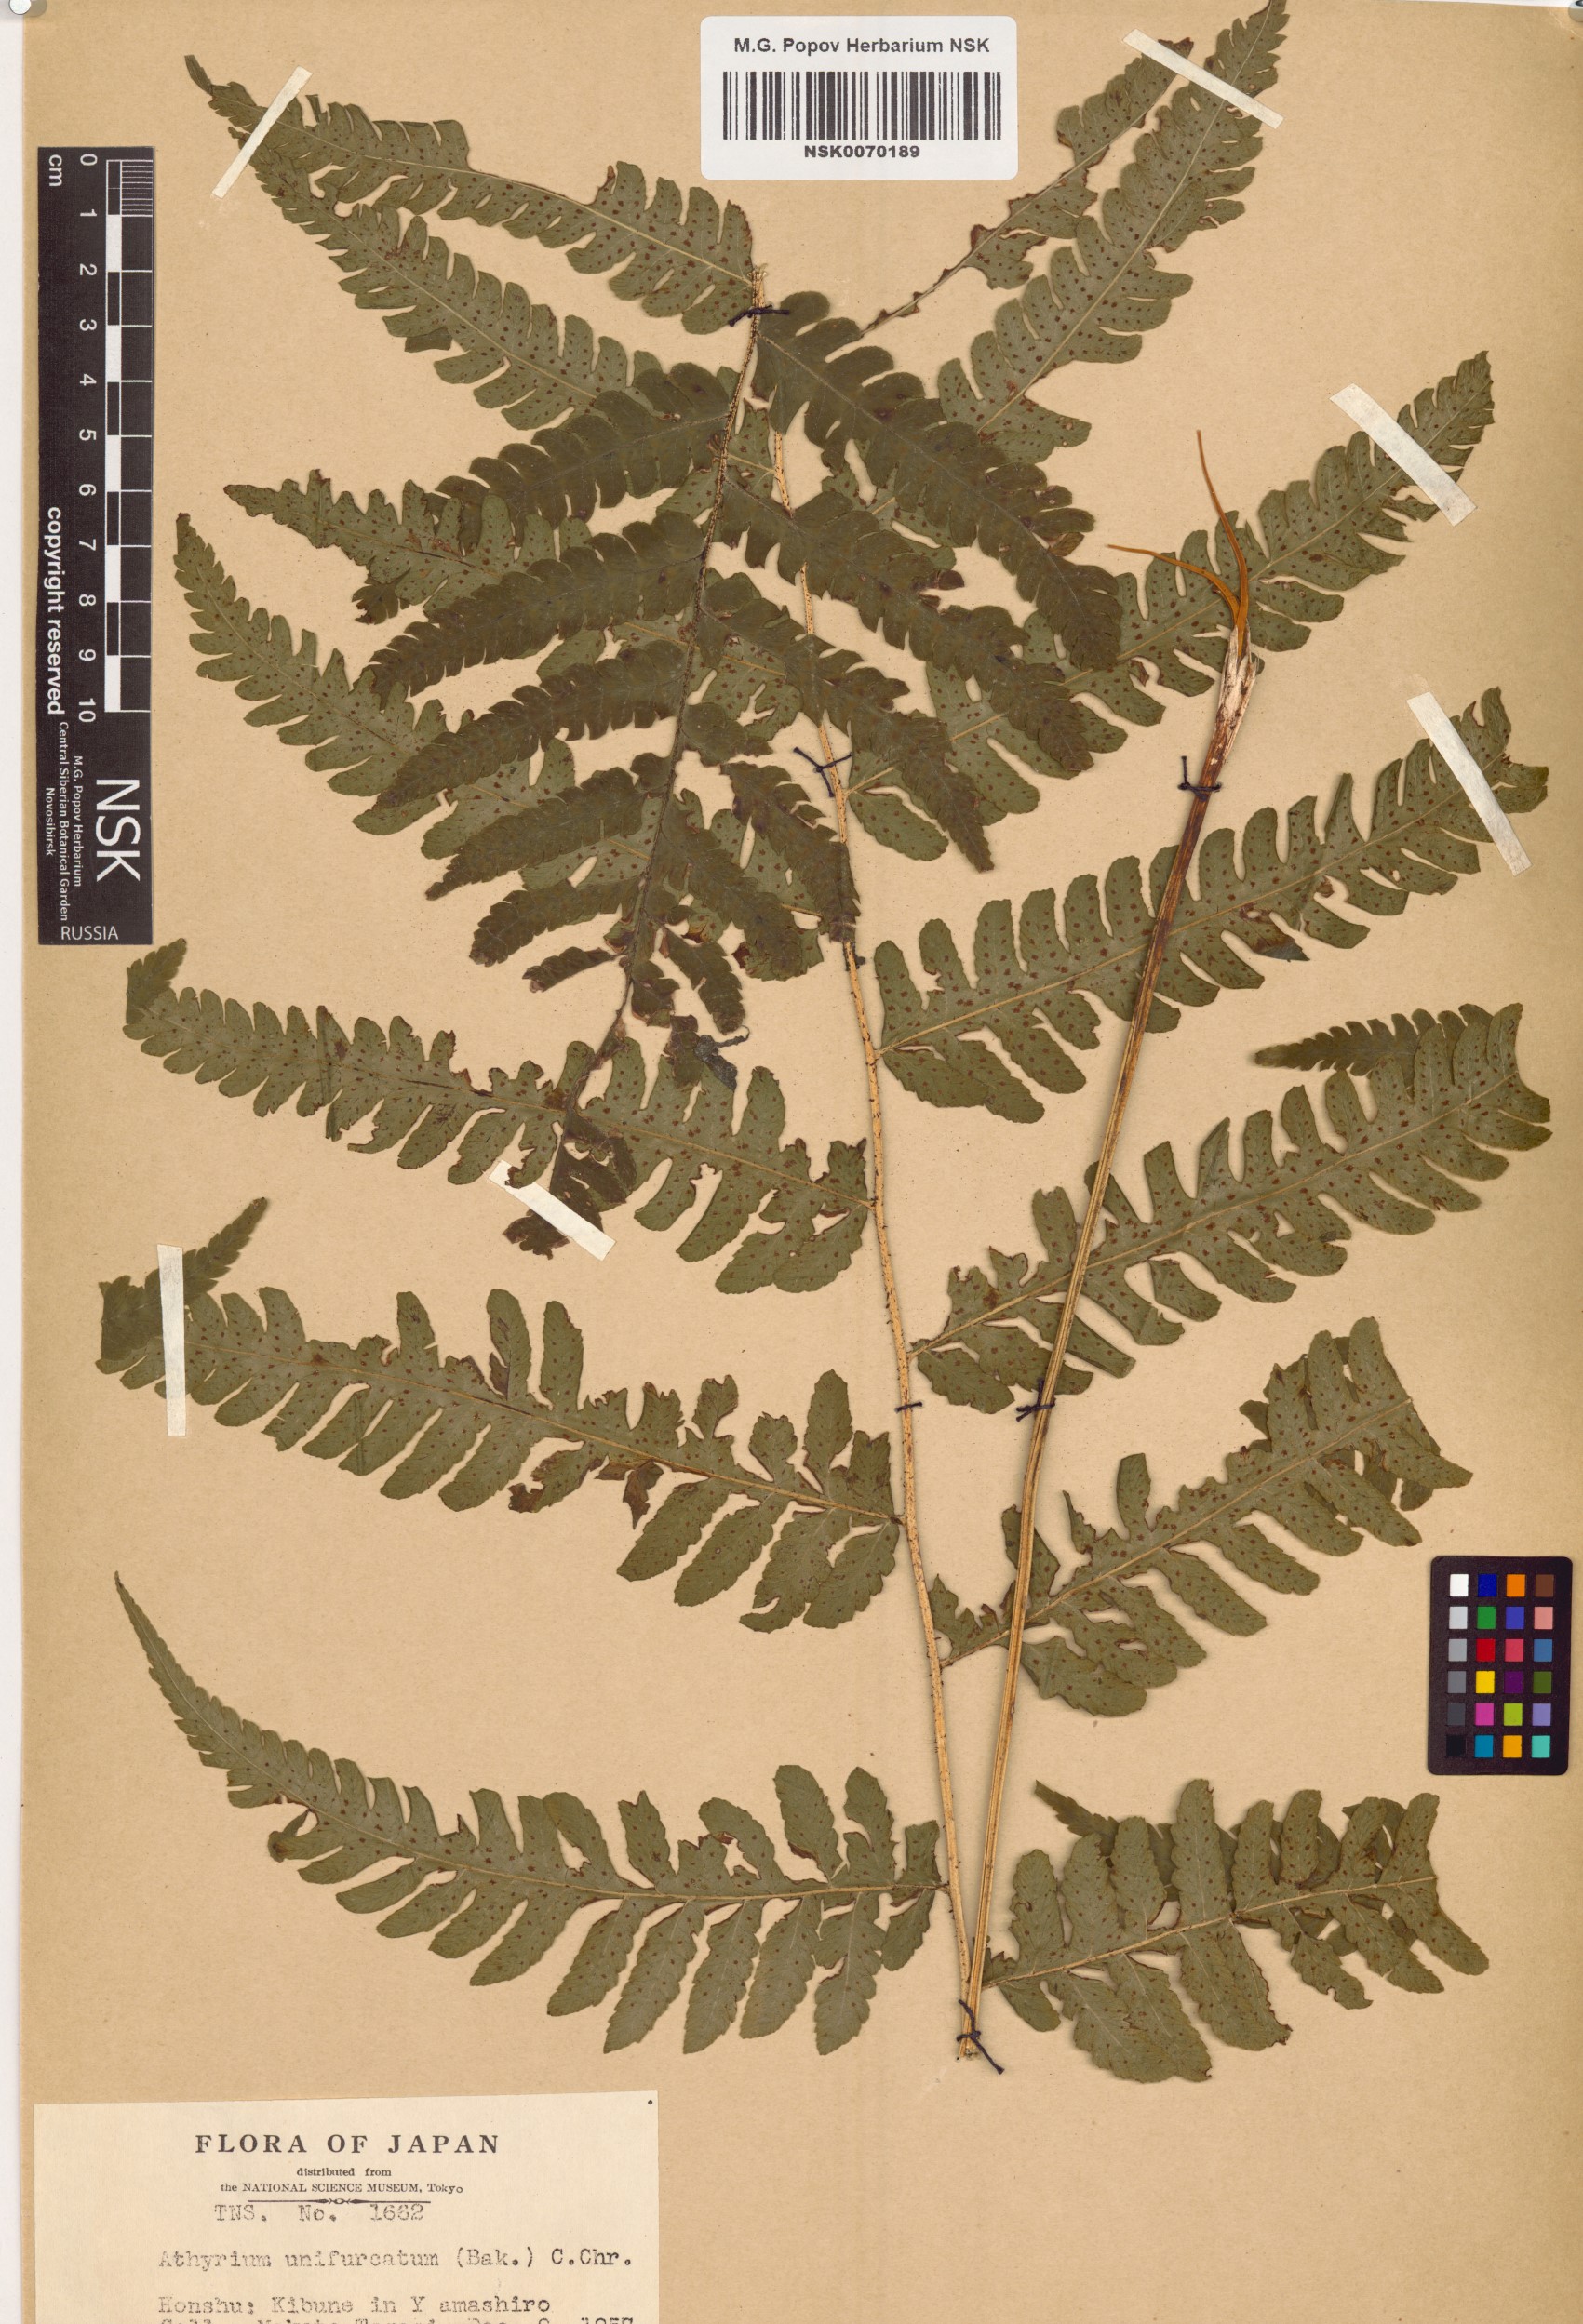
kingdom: Plantae
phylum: Tracheophyta
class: Polypodiopsida
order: Polypodiales
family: Athyriaceae
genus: Deparia
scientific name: Deparia unifurcata
